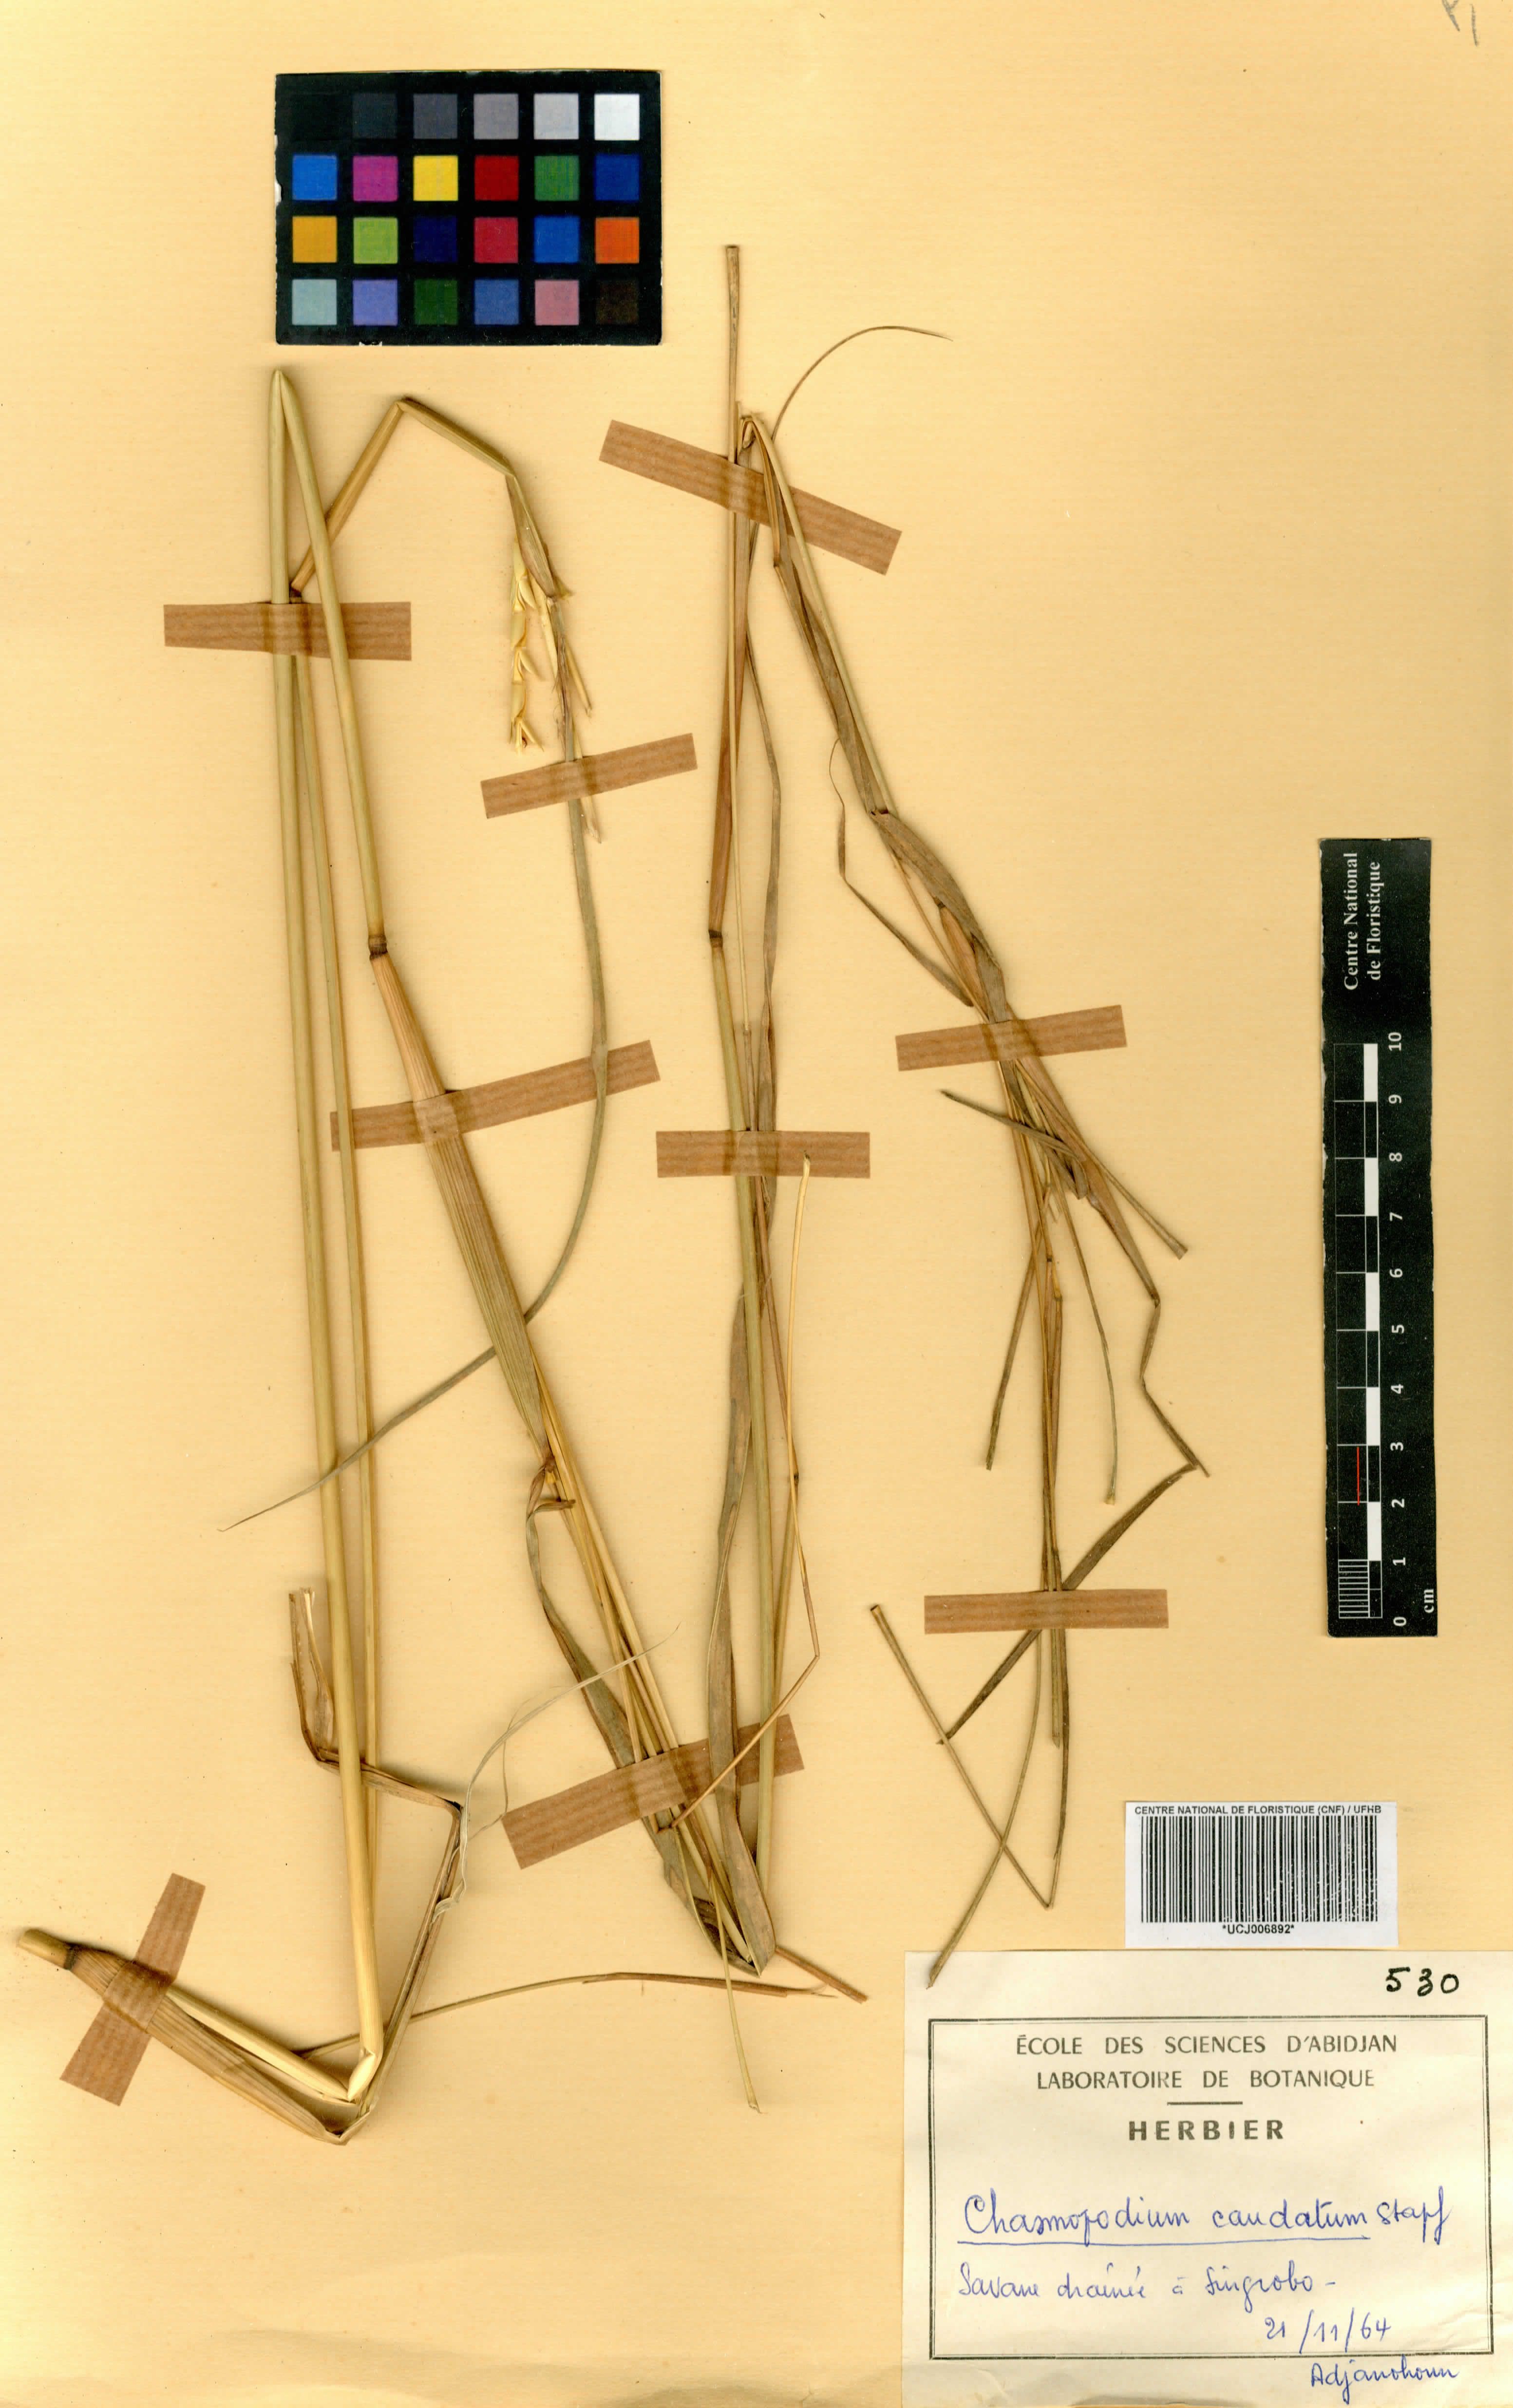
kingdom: Plantae
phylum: Tracheophyta
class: Liliopsida
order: Poales
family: Poaceae
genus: Chasmopodium
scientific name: Chasmopodium caudatum
